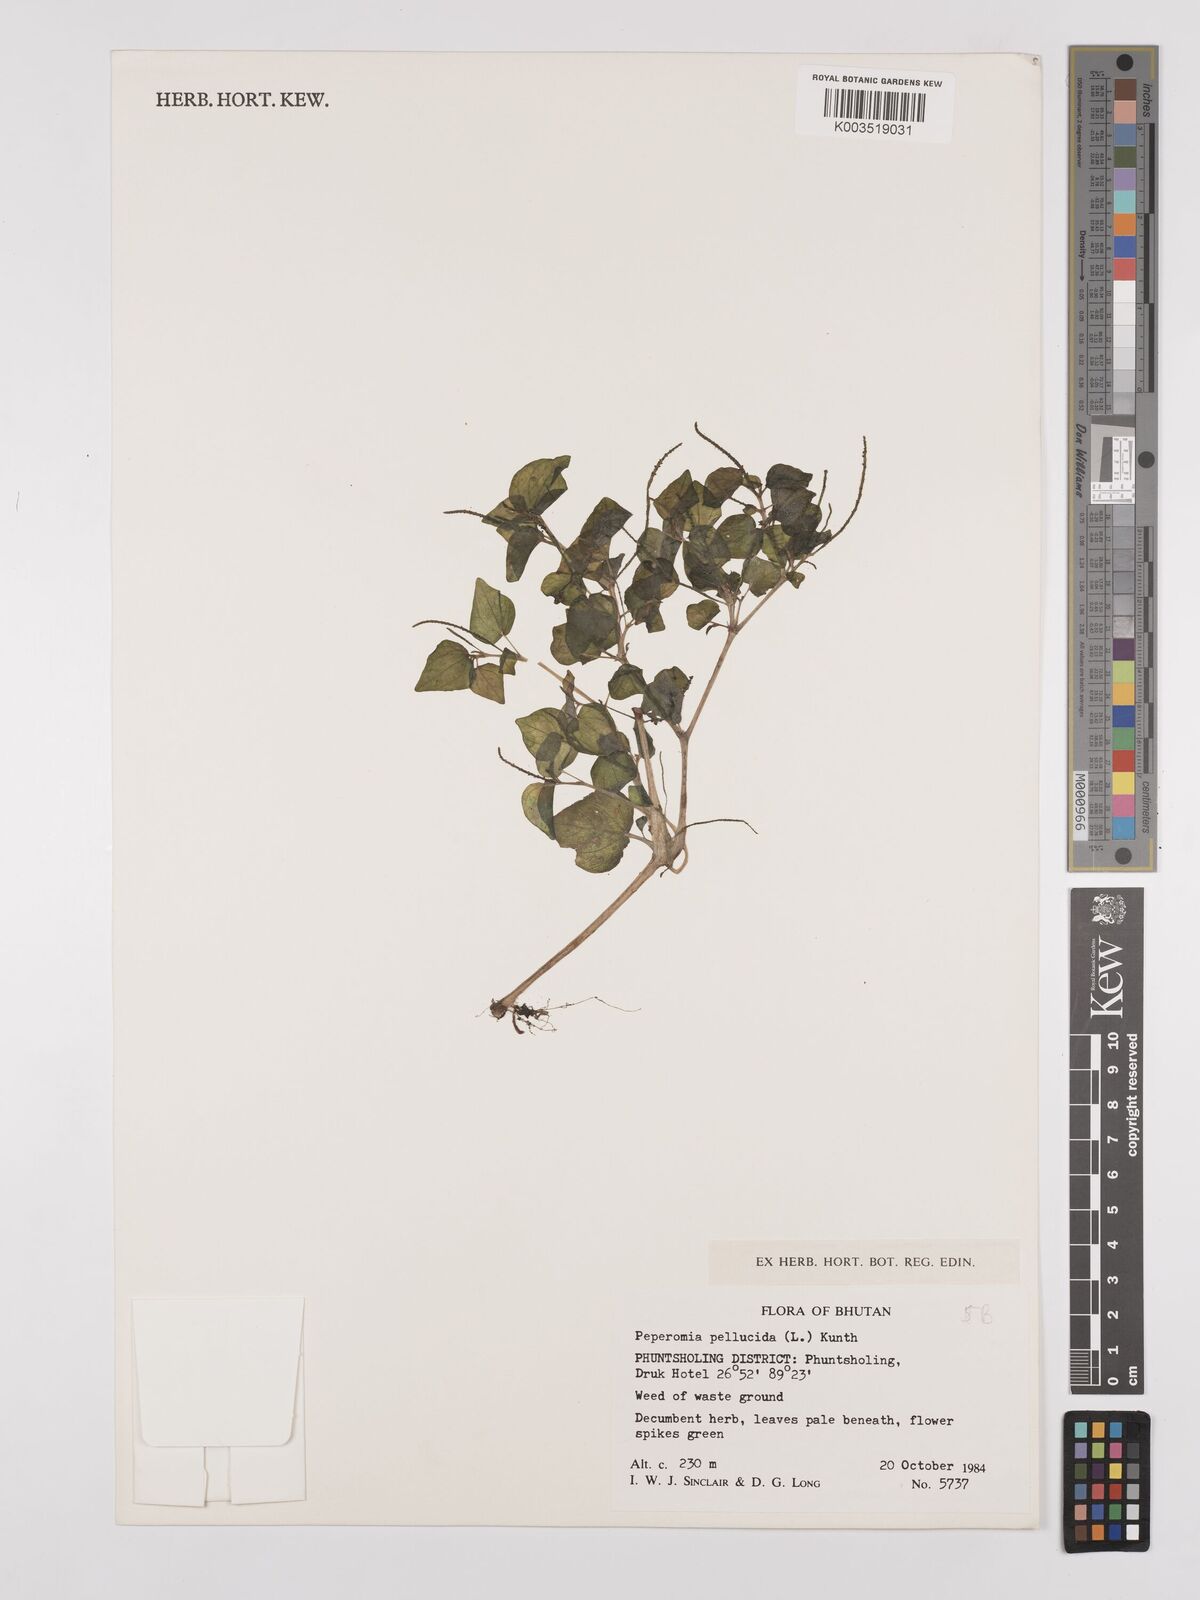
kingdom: Plantae
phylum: Tracheophyta
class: Magnoliopsida
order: Piperales
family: Piperaceae
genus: Peperomia
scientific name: Peperomia pellucida
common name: Man to man
